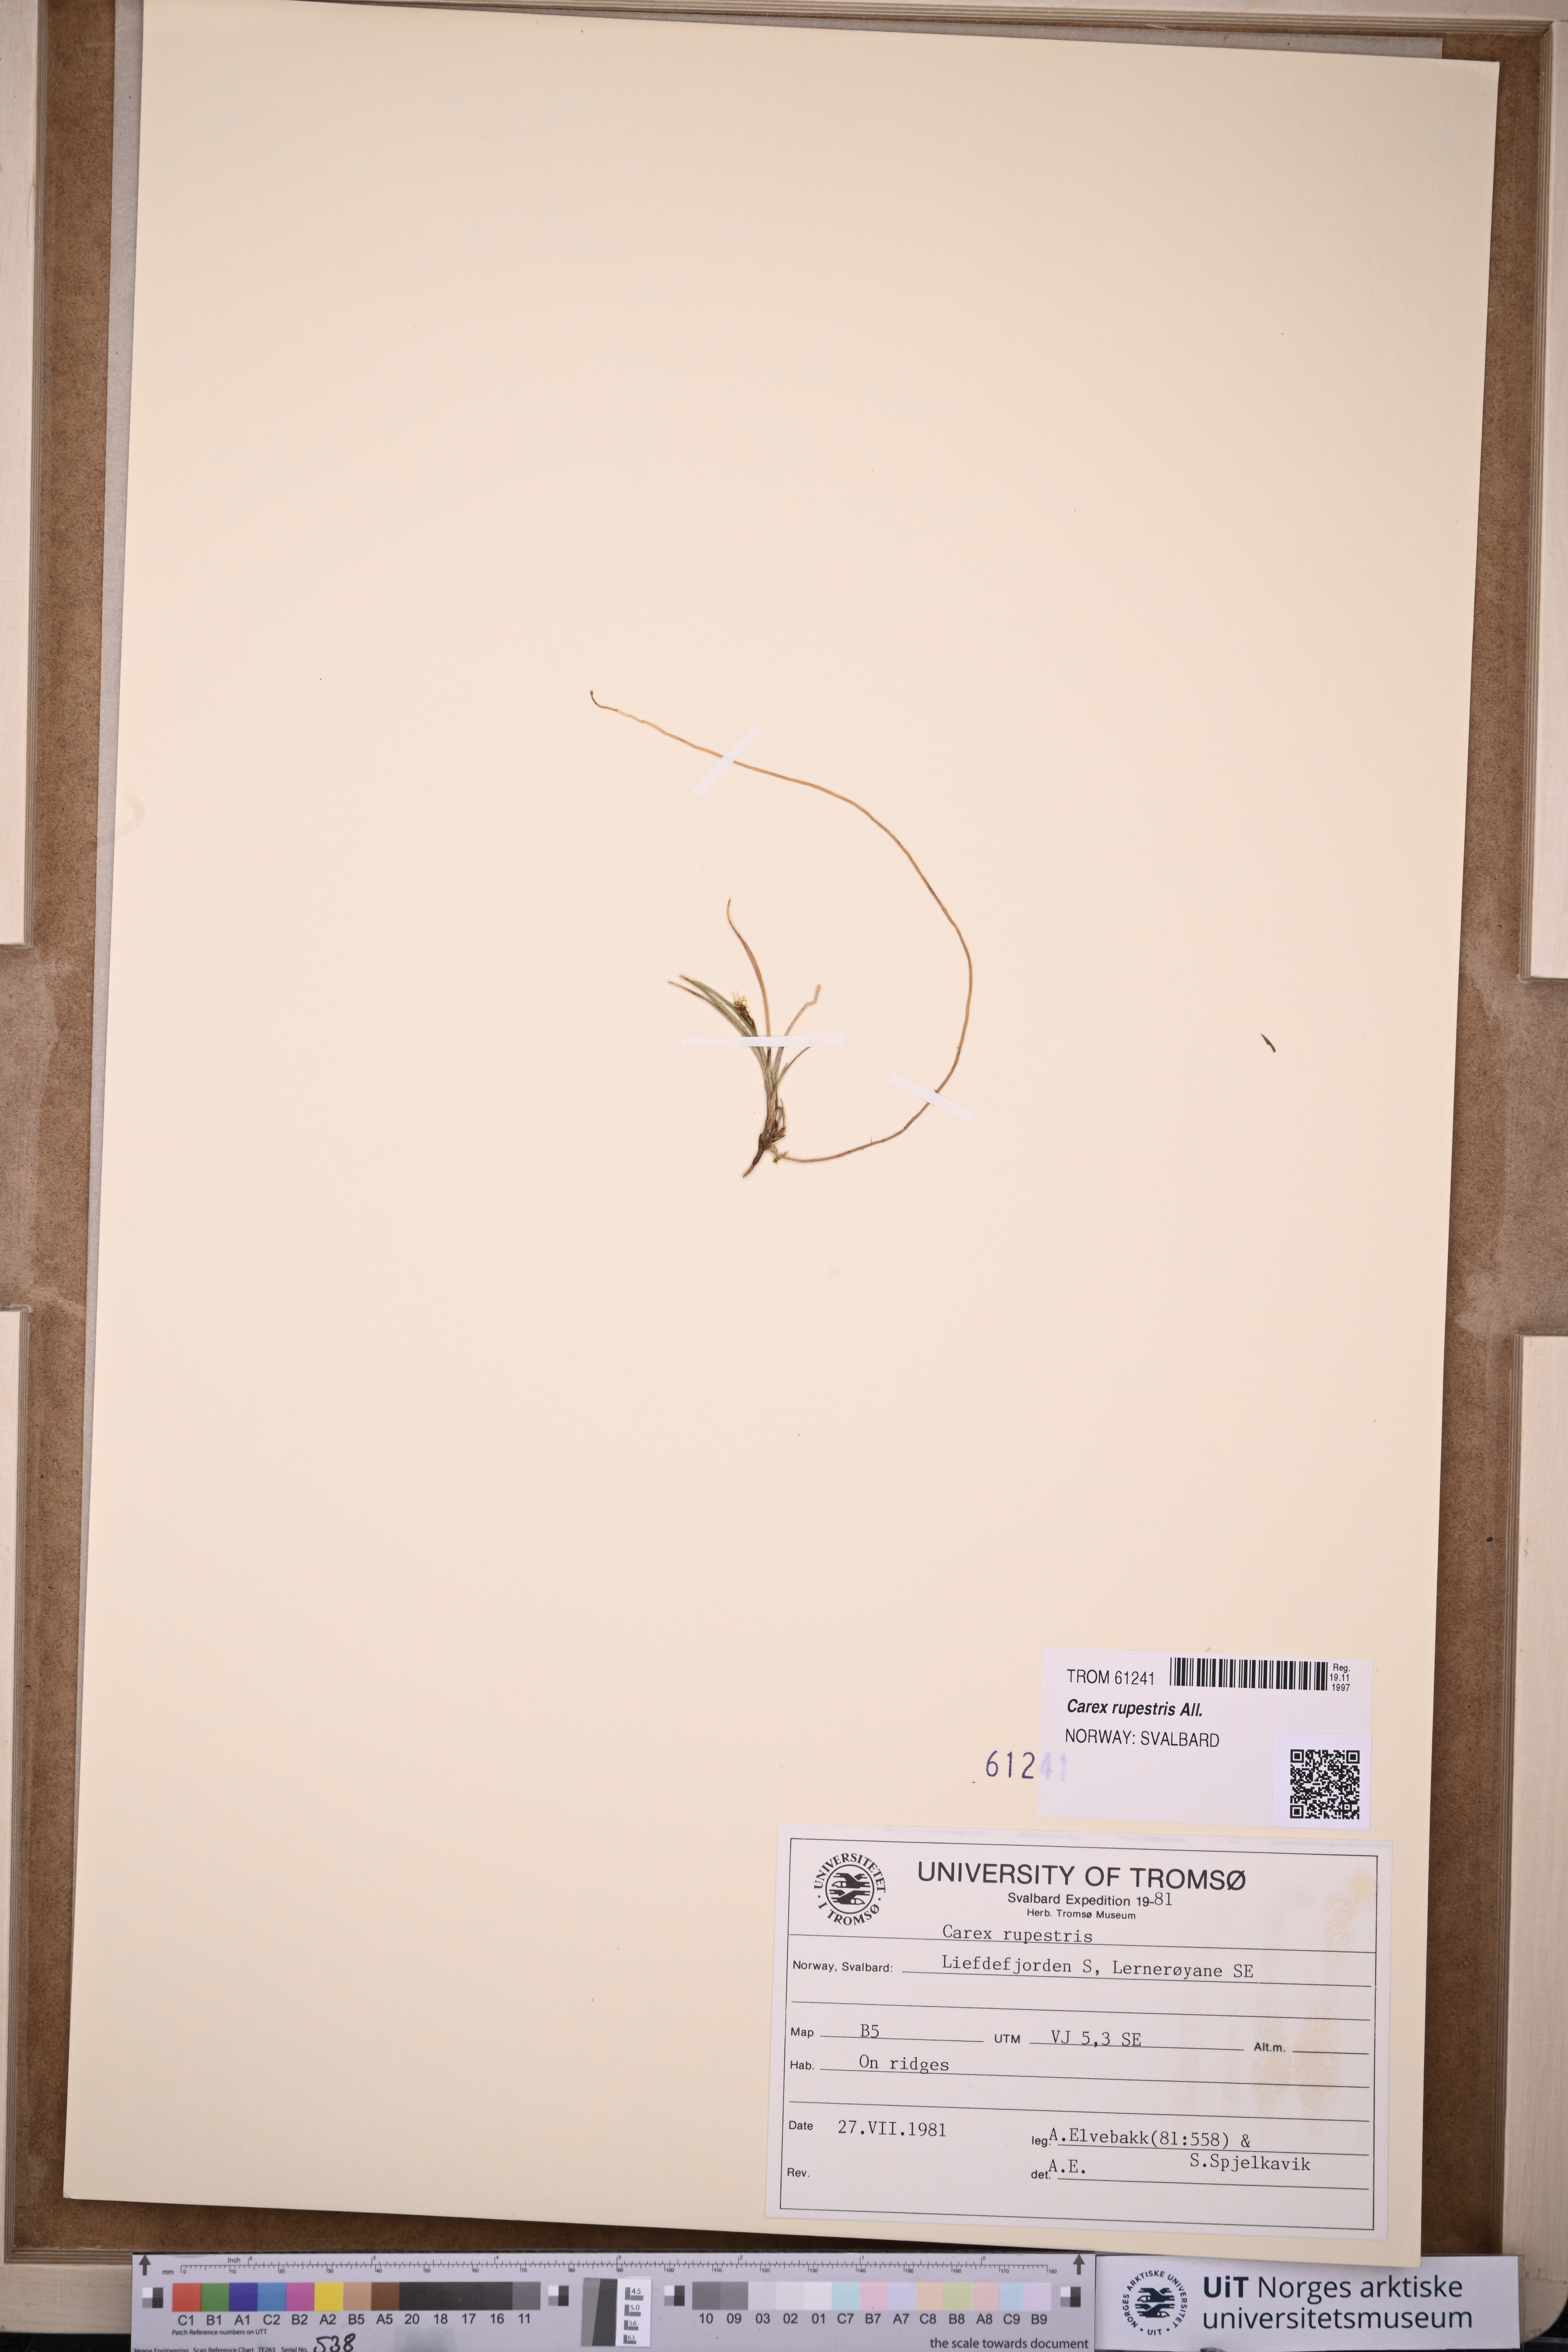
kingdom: Plantae
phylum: Tracheophyta
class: Liliopsida
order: Poales
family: Cyperaceae
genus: Carex
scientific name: Carex rupestris
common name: Rock sedge
